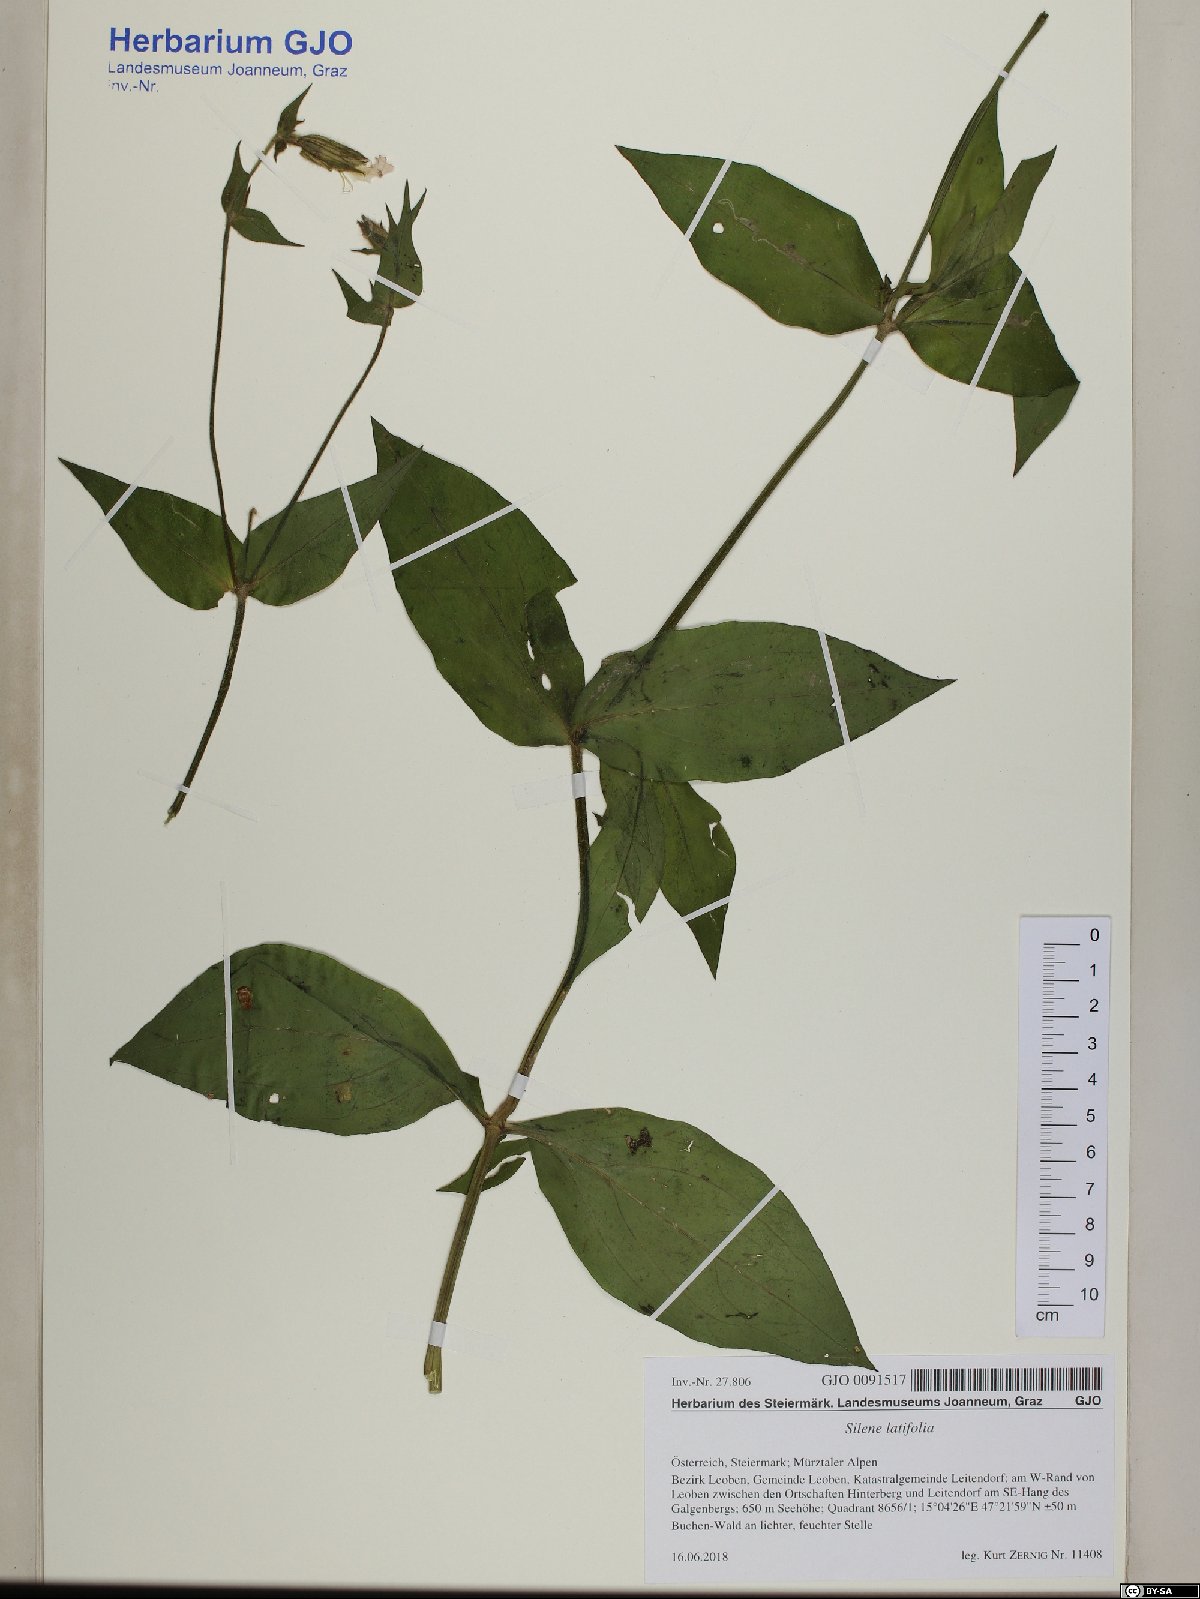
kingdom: Plantae
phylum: Tracheophyta
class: Magnoliopsida
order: Caryophyllales
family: Caryophyllaceae
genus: Silene
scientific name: Silene latifolia
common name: White campion
